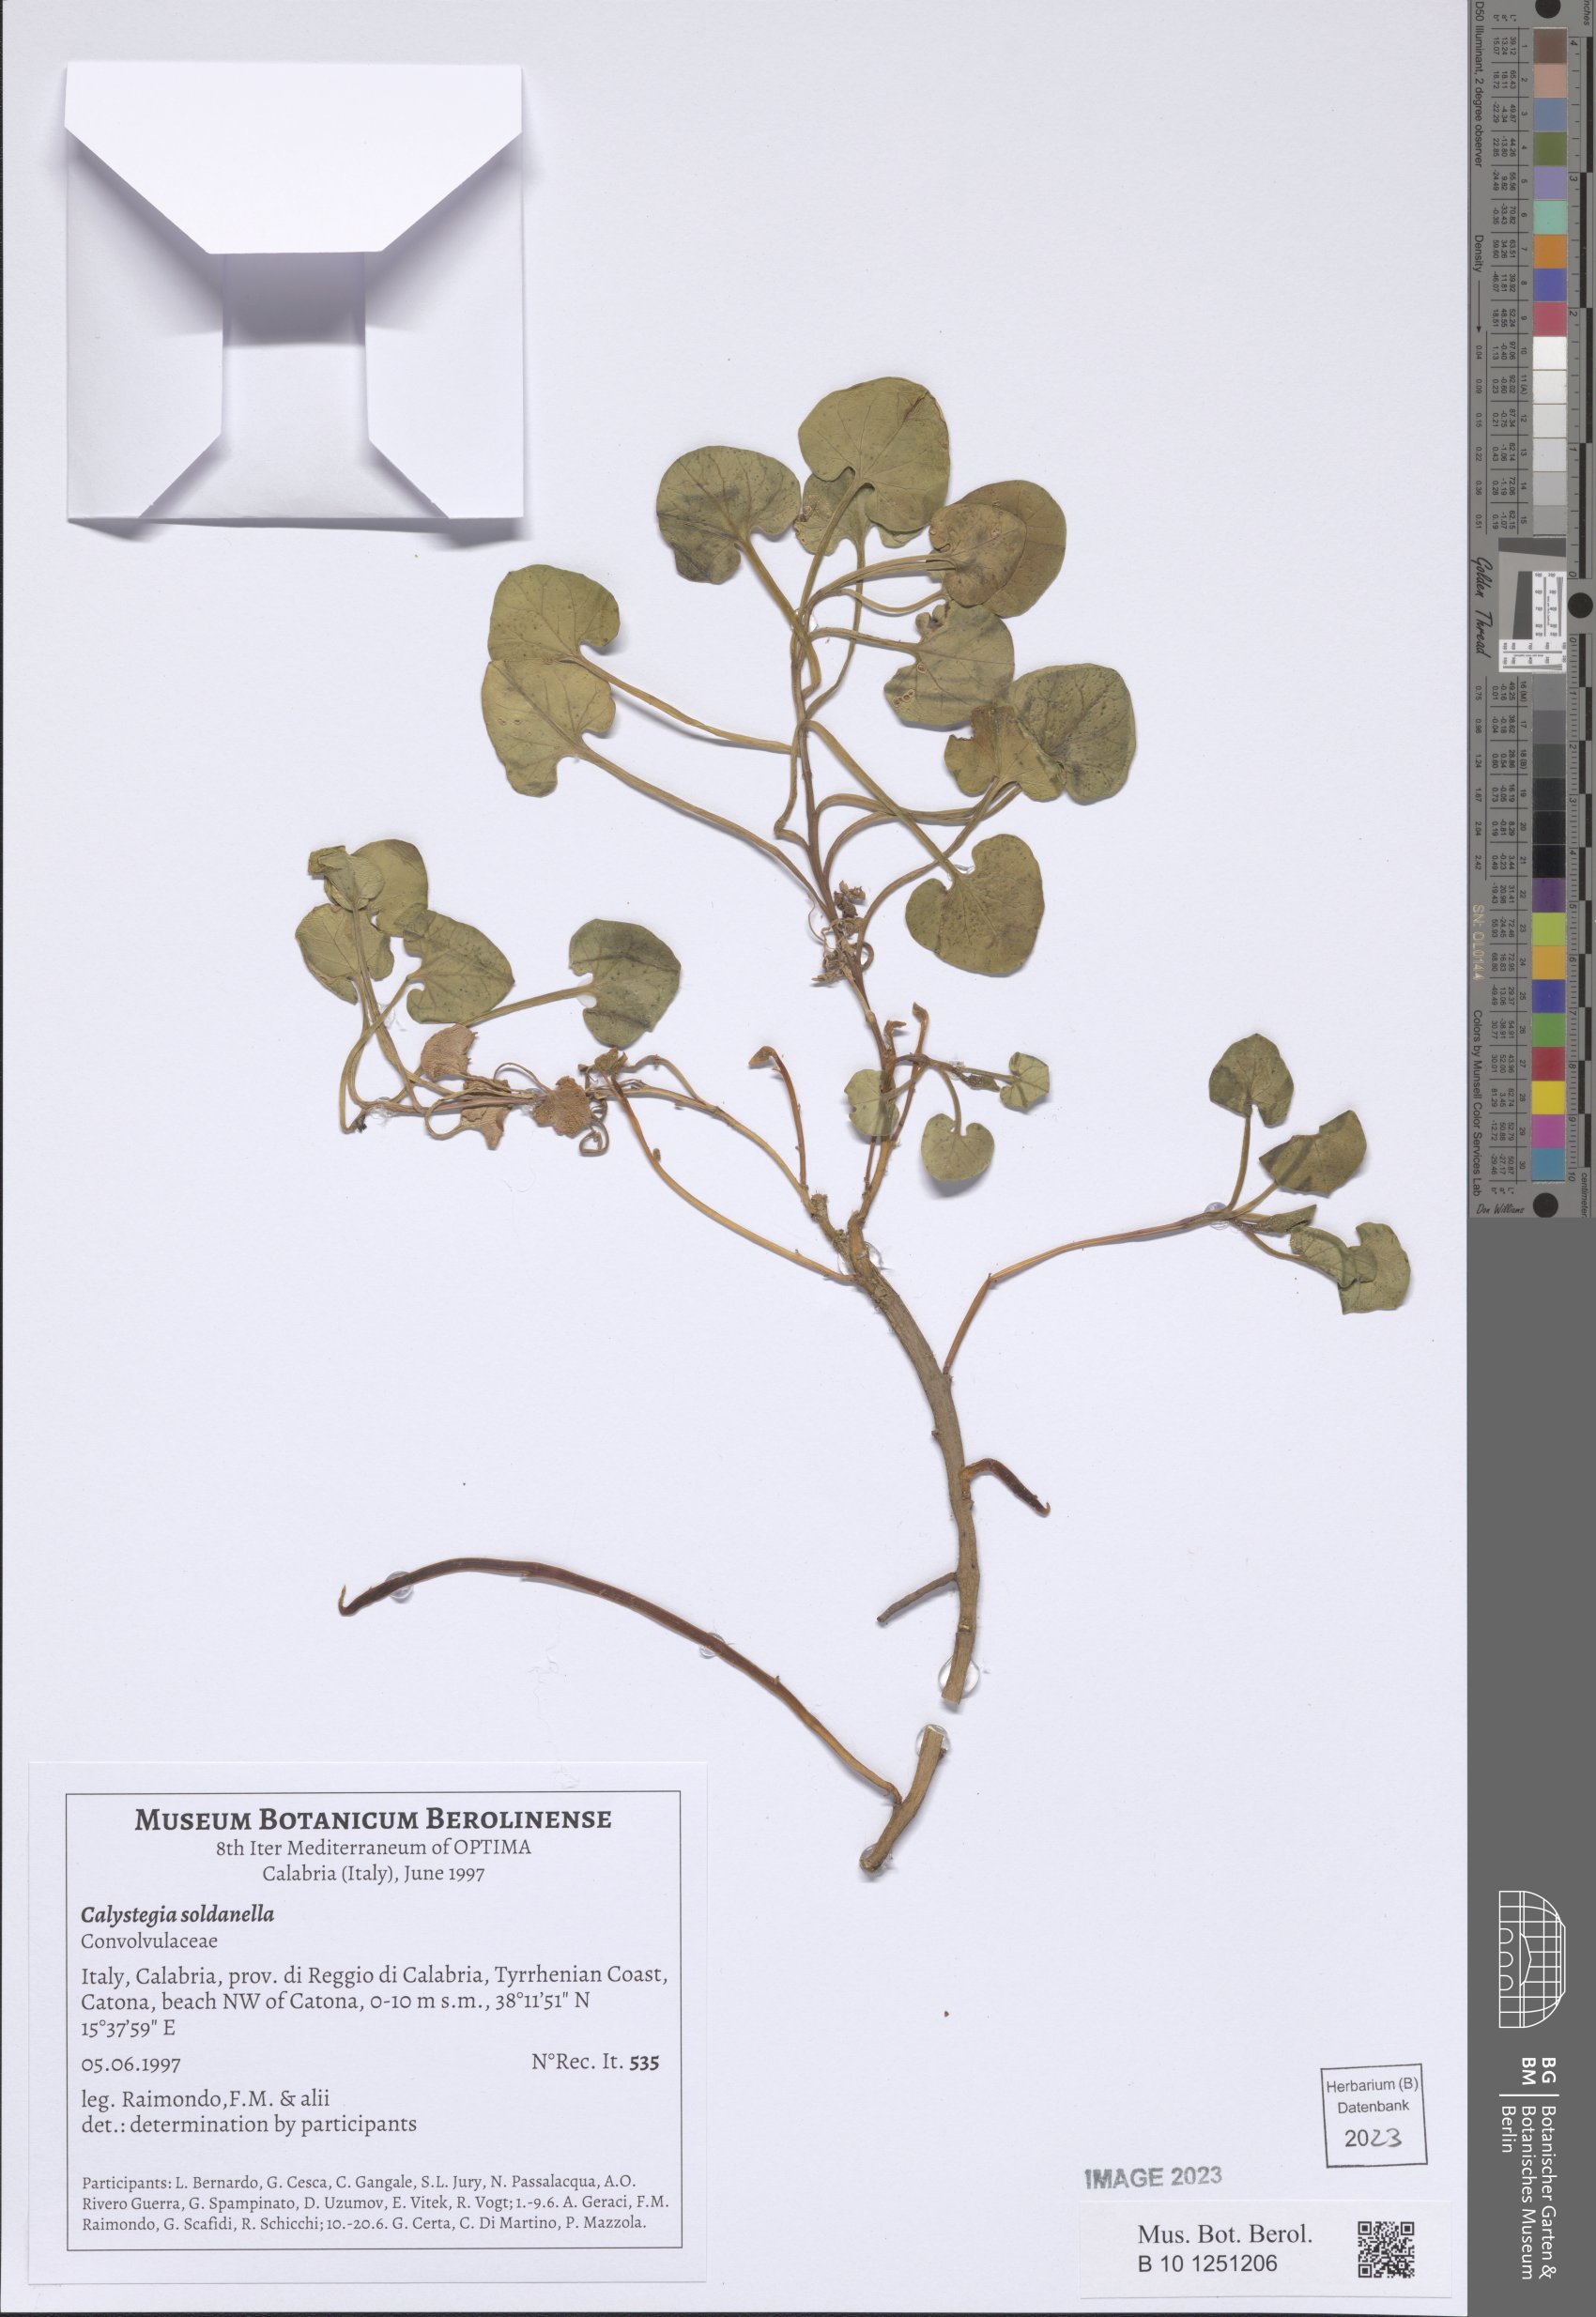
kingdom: Plantae
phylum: Tracheophyta
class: Magnoliopsida
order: Solanales
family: Convolvulaceae
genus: Calystegia
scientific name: Calystegia soldanella
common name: Sea bindweed
